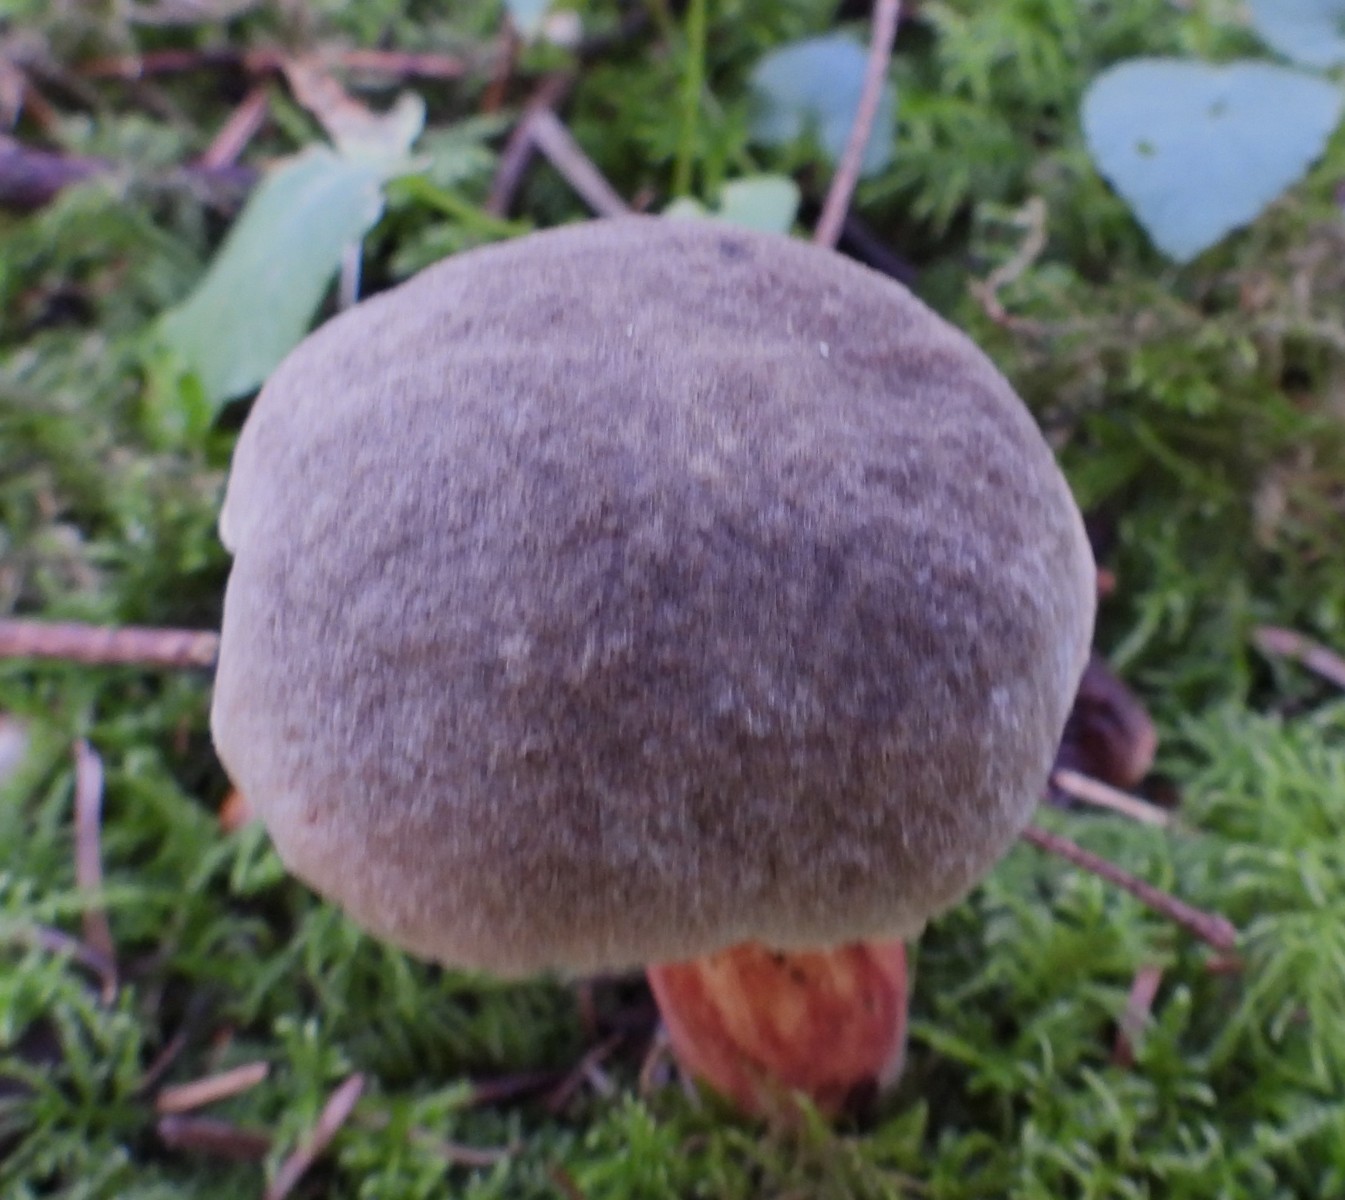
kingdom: Fungi
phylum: Basidiomycota
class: Agaricomycetes
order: Boletales
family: Boletaceae
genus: Xerocomellus
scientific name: Xerocomellus chrysenteron
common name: rødsprukken rørhat
